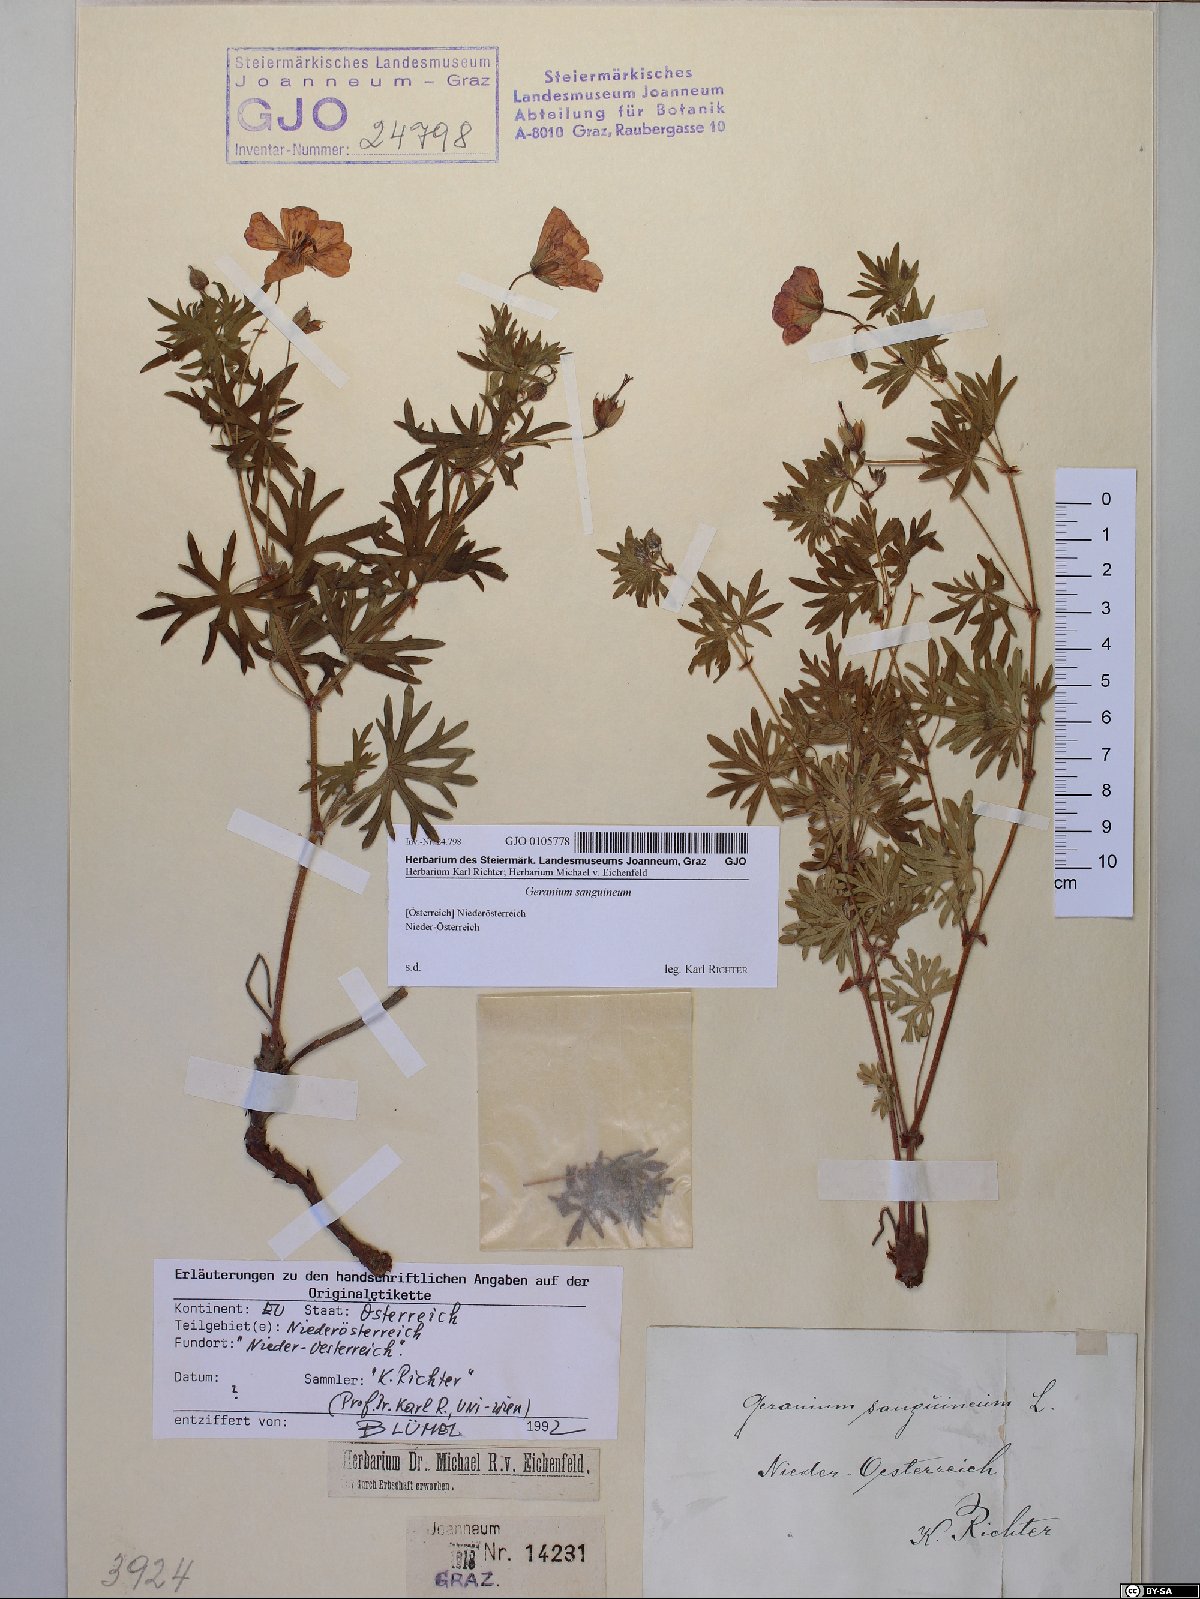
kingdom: Plantae
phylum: Tracheophyta
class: Magnoliopsida
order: Geraniales
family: Geraniaceae
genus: Geranium
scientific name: Geranium sanguineum
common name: Bloody crane's-bill
